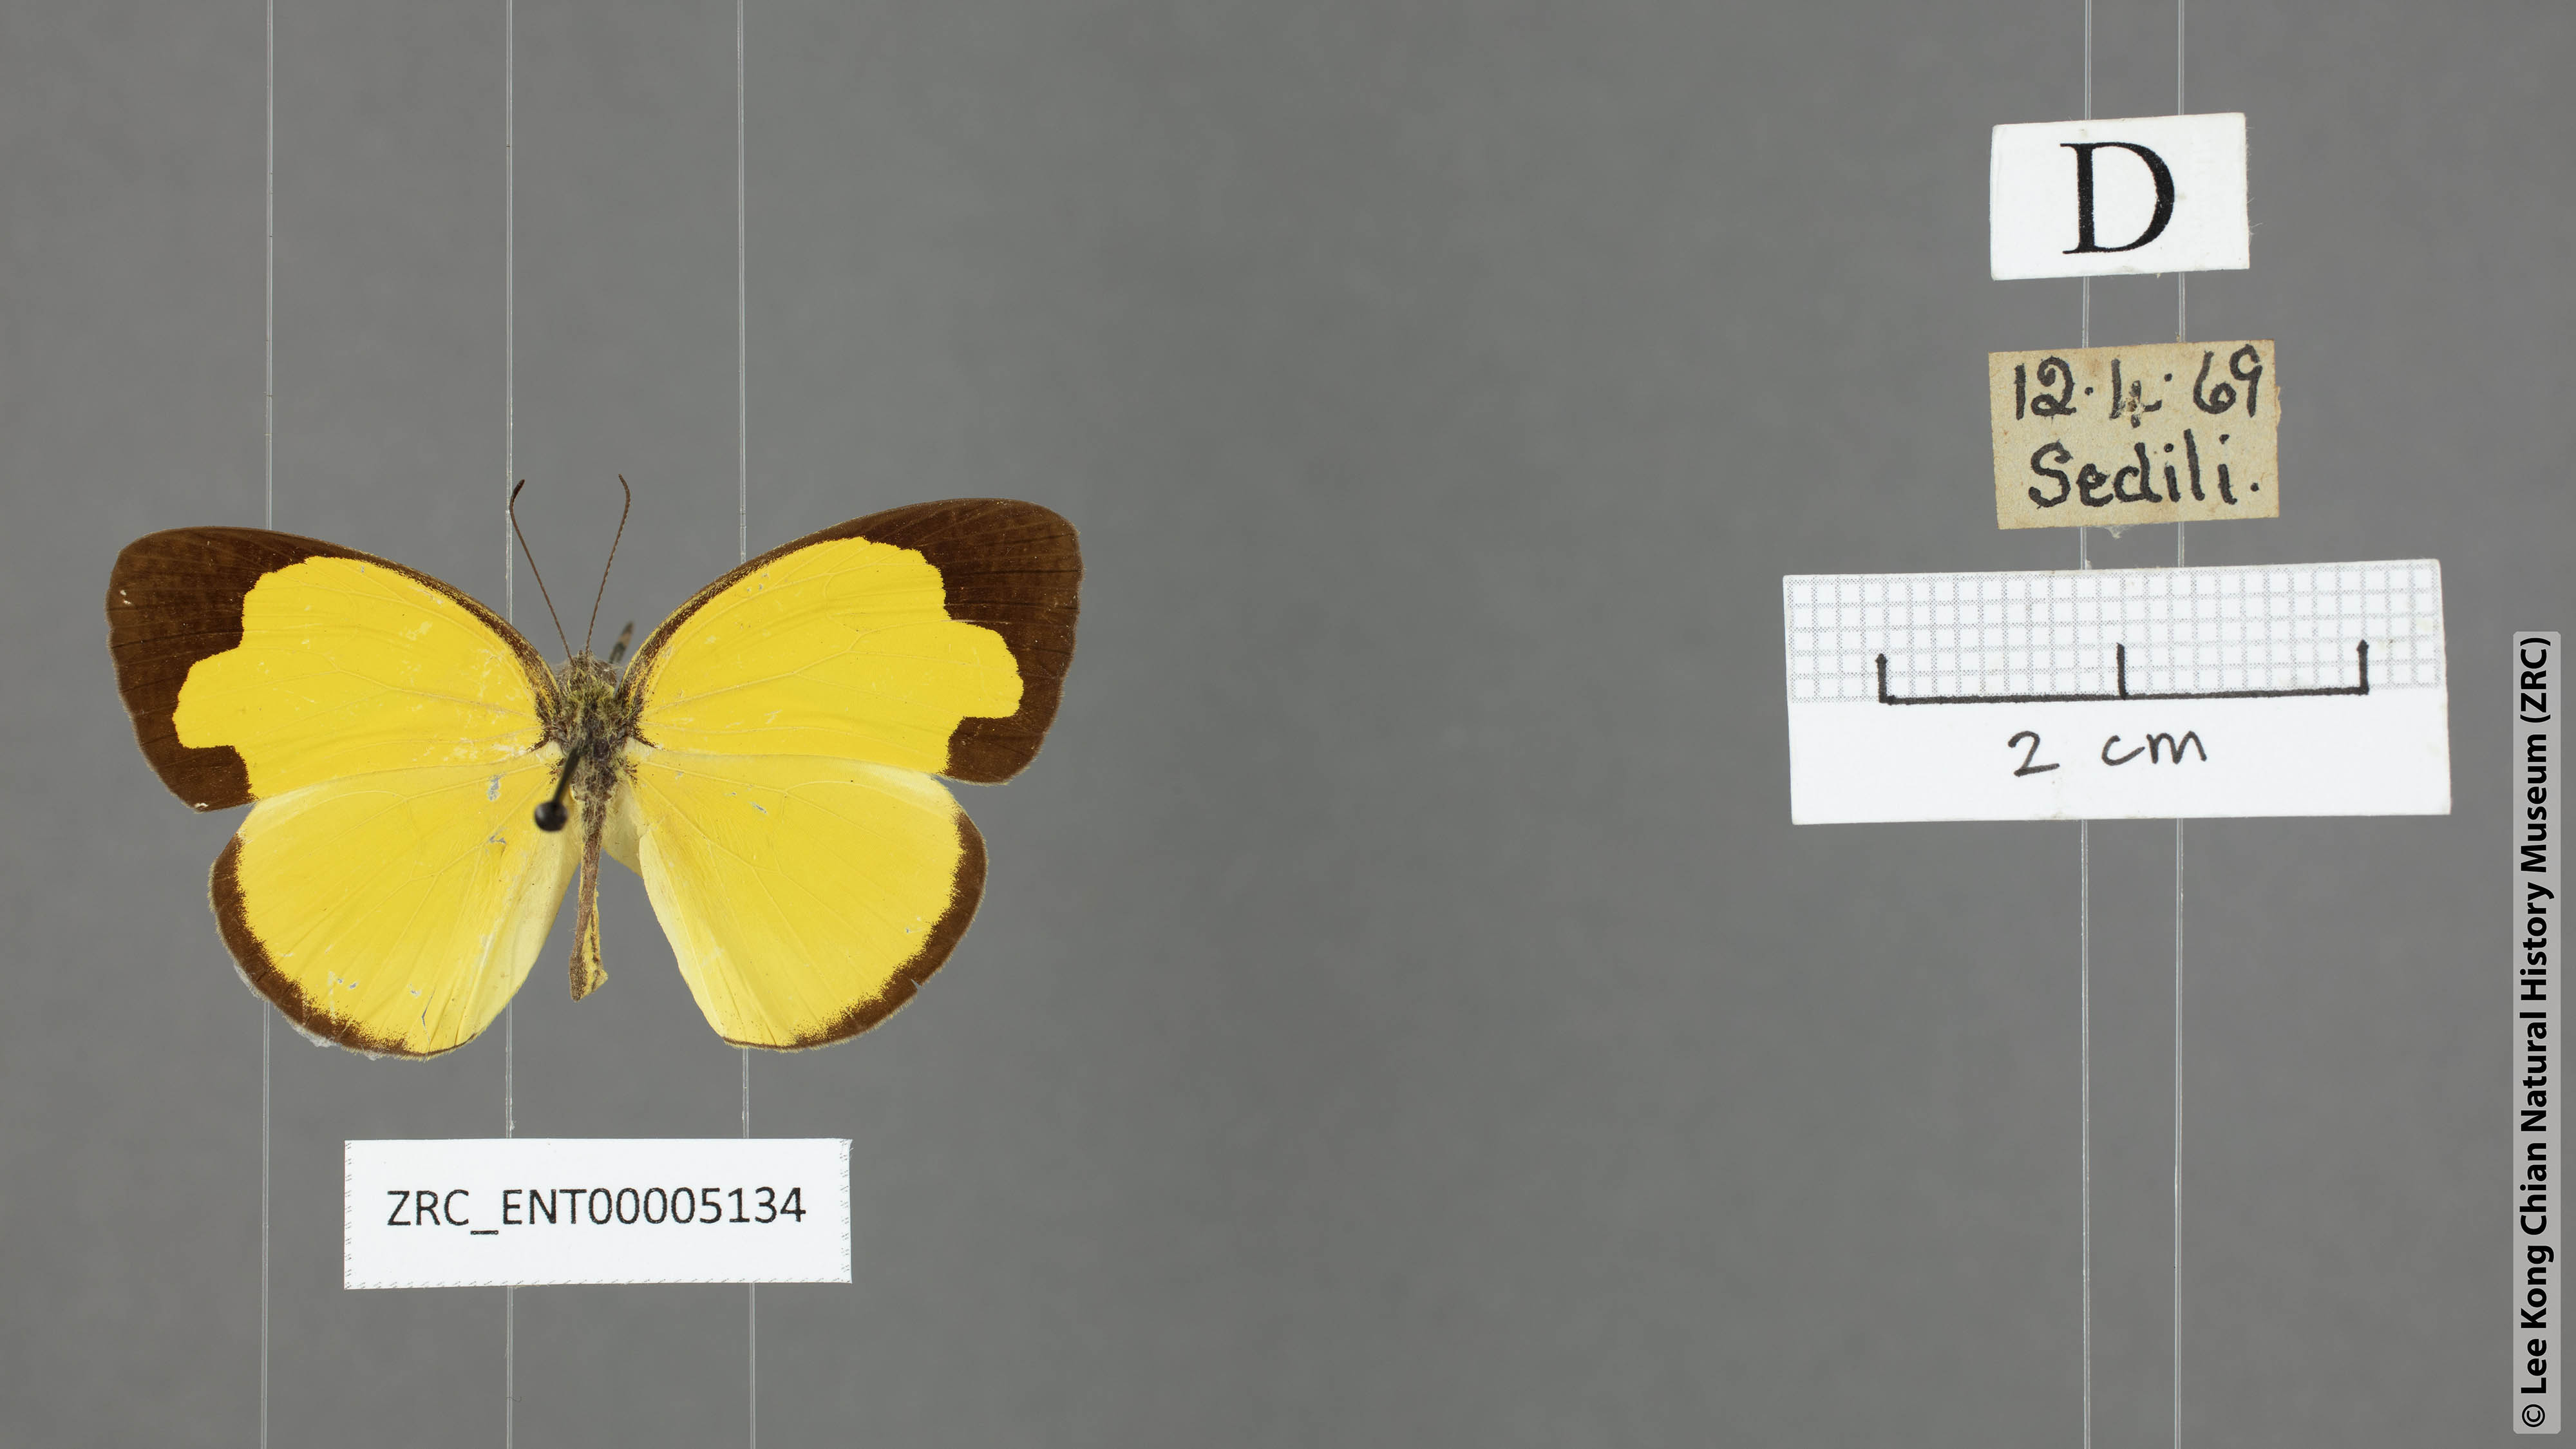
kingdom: Animalia
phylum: Arthropoda
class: Insecta
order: Lepidoptera
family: Pieridae
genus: Eurema
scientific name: Eurema sari
